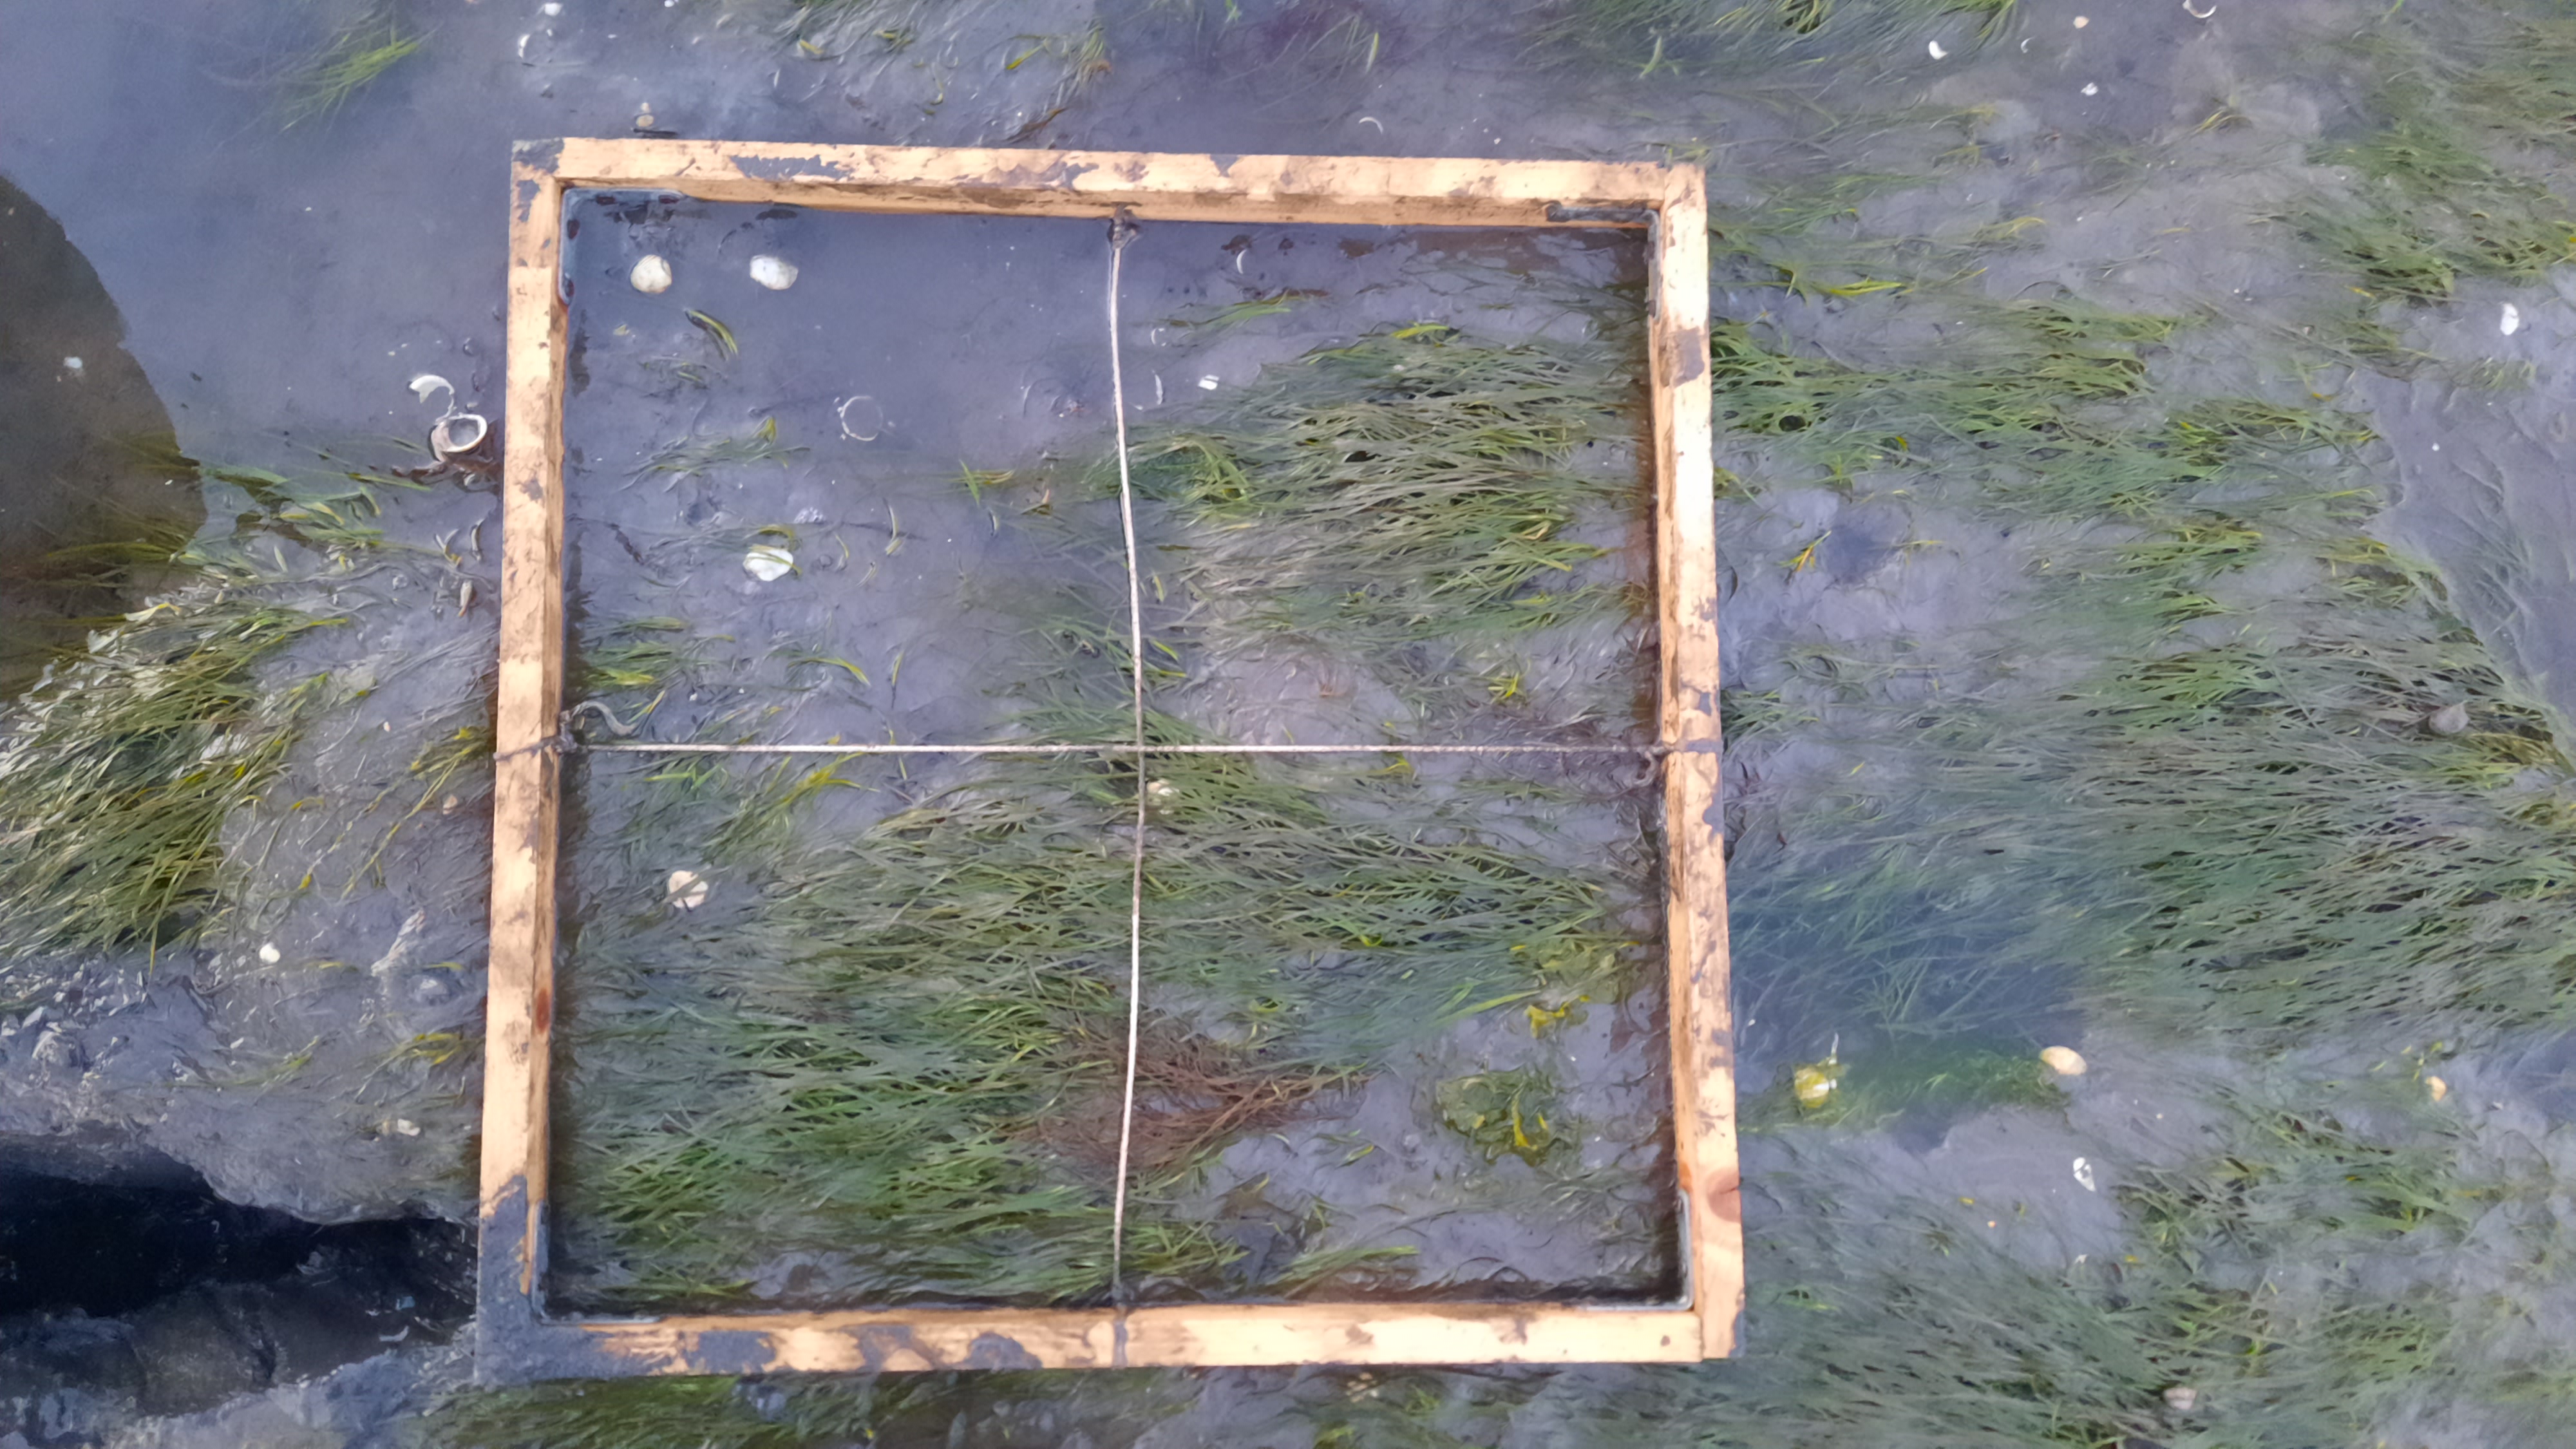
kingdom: Plantae
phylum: Tracheophyta
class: Liliopsida
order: Alismatales
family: Zosteraceae
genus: Zostera
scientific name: Zostera noltii
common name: Dwarf eelgrass
